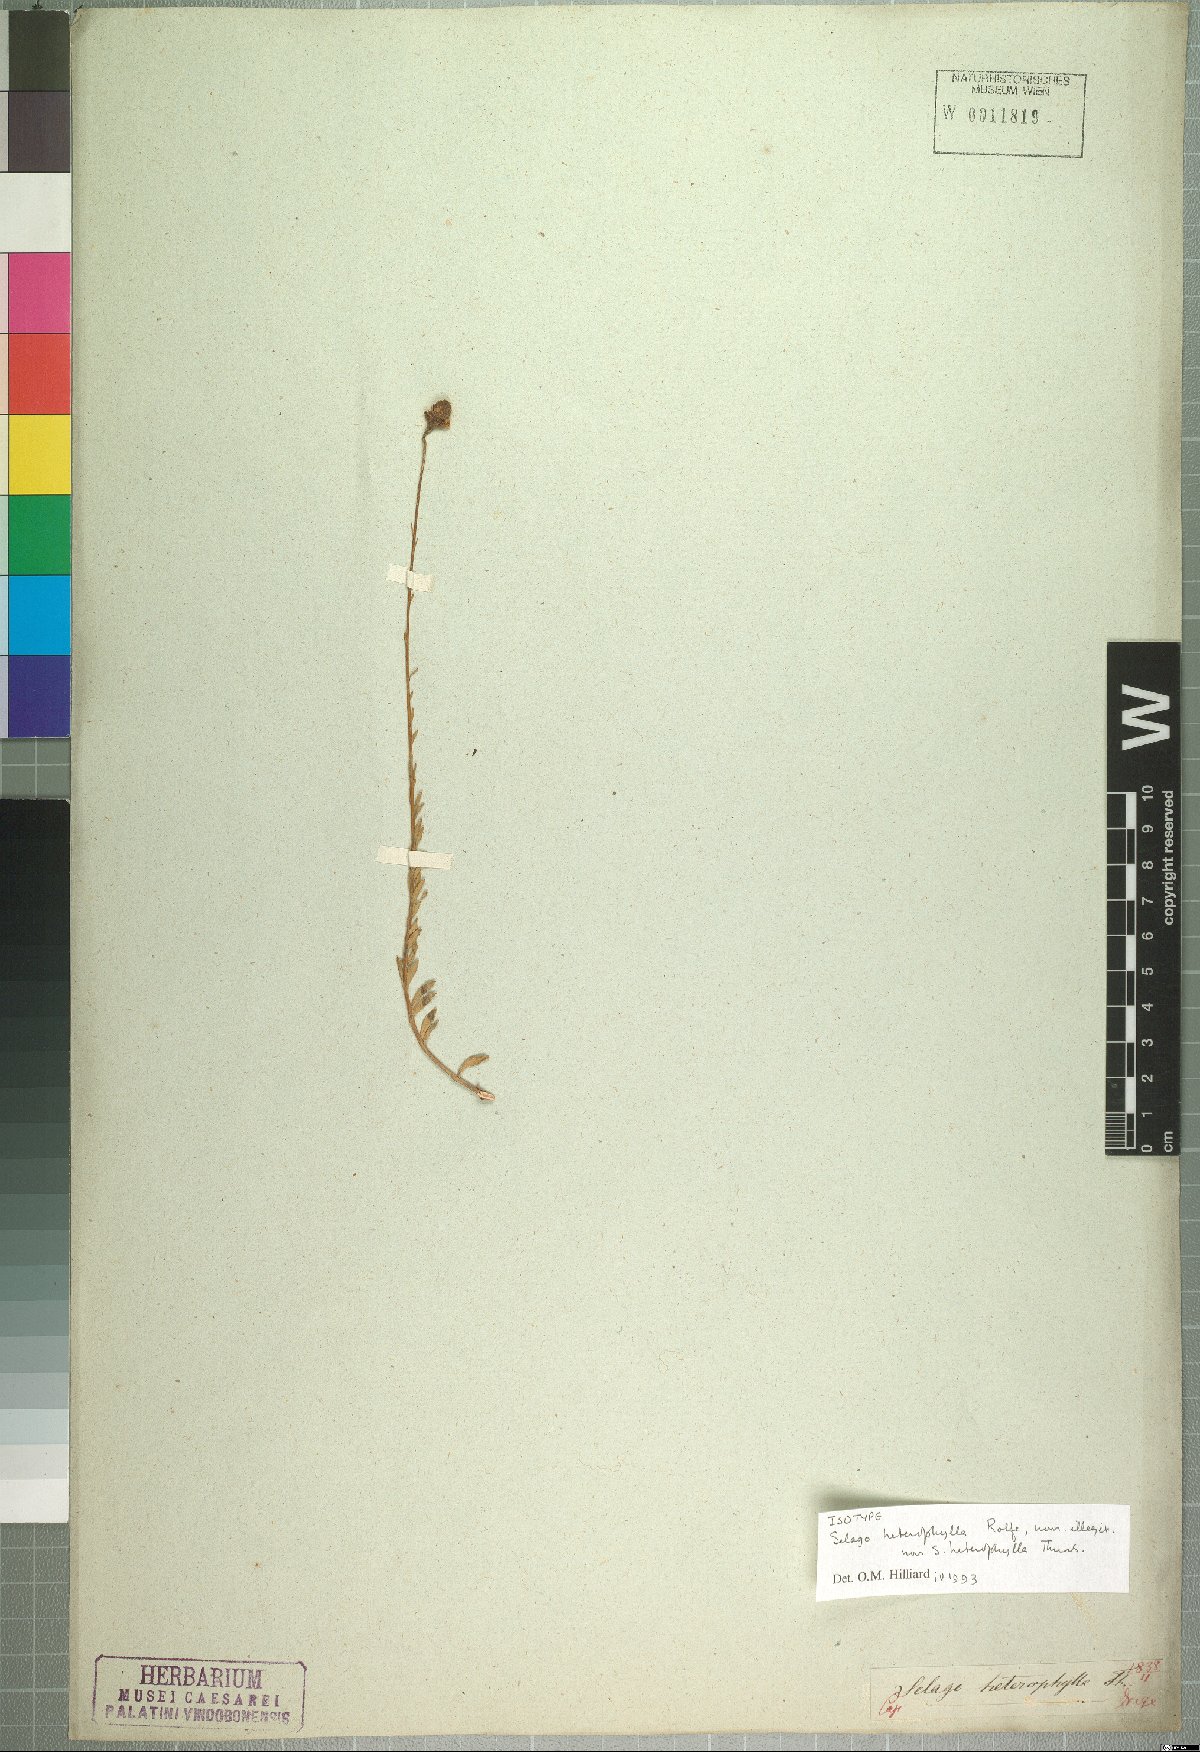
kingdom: Plantae
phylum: Tracheophyta
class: Magnoliopsida
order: Lamiales
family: Scrophulariaceae
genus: Pseudoselago
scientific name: Pseudoselago similis
